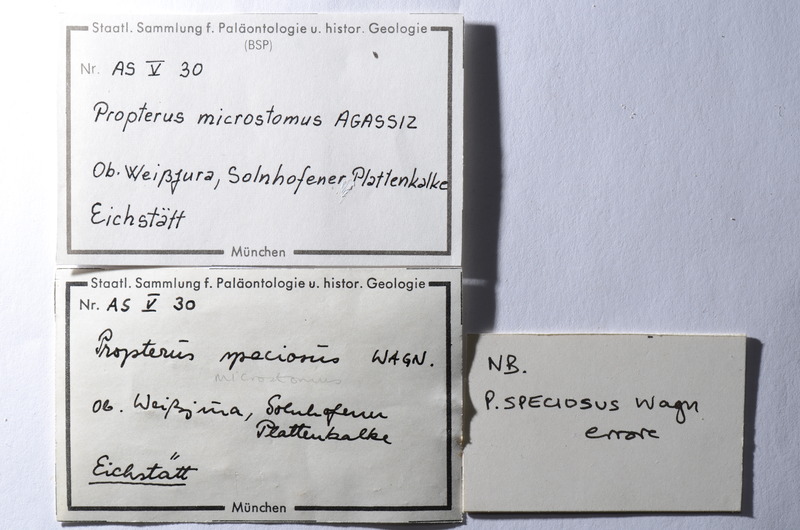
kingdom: Animalia
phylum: Chordata
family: Macrosemiidae
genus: Propterus
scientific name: Propterus microstomus
